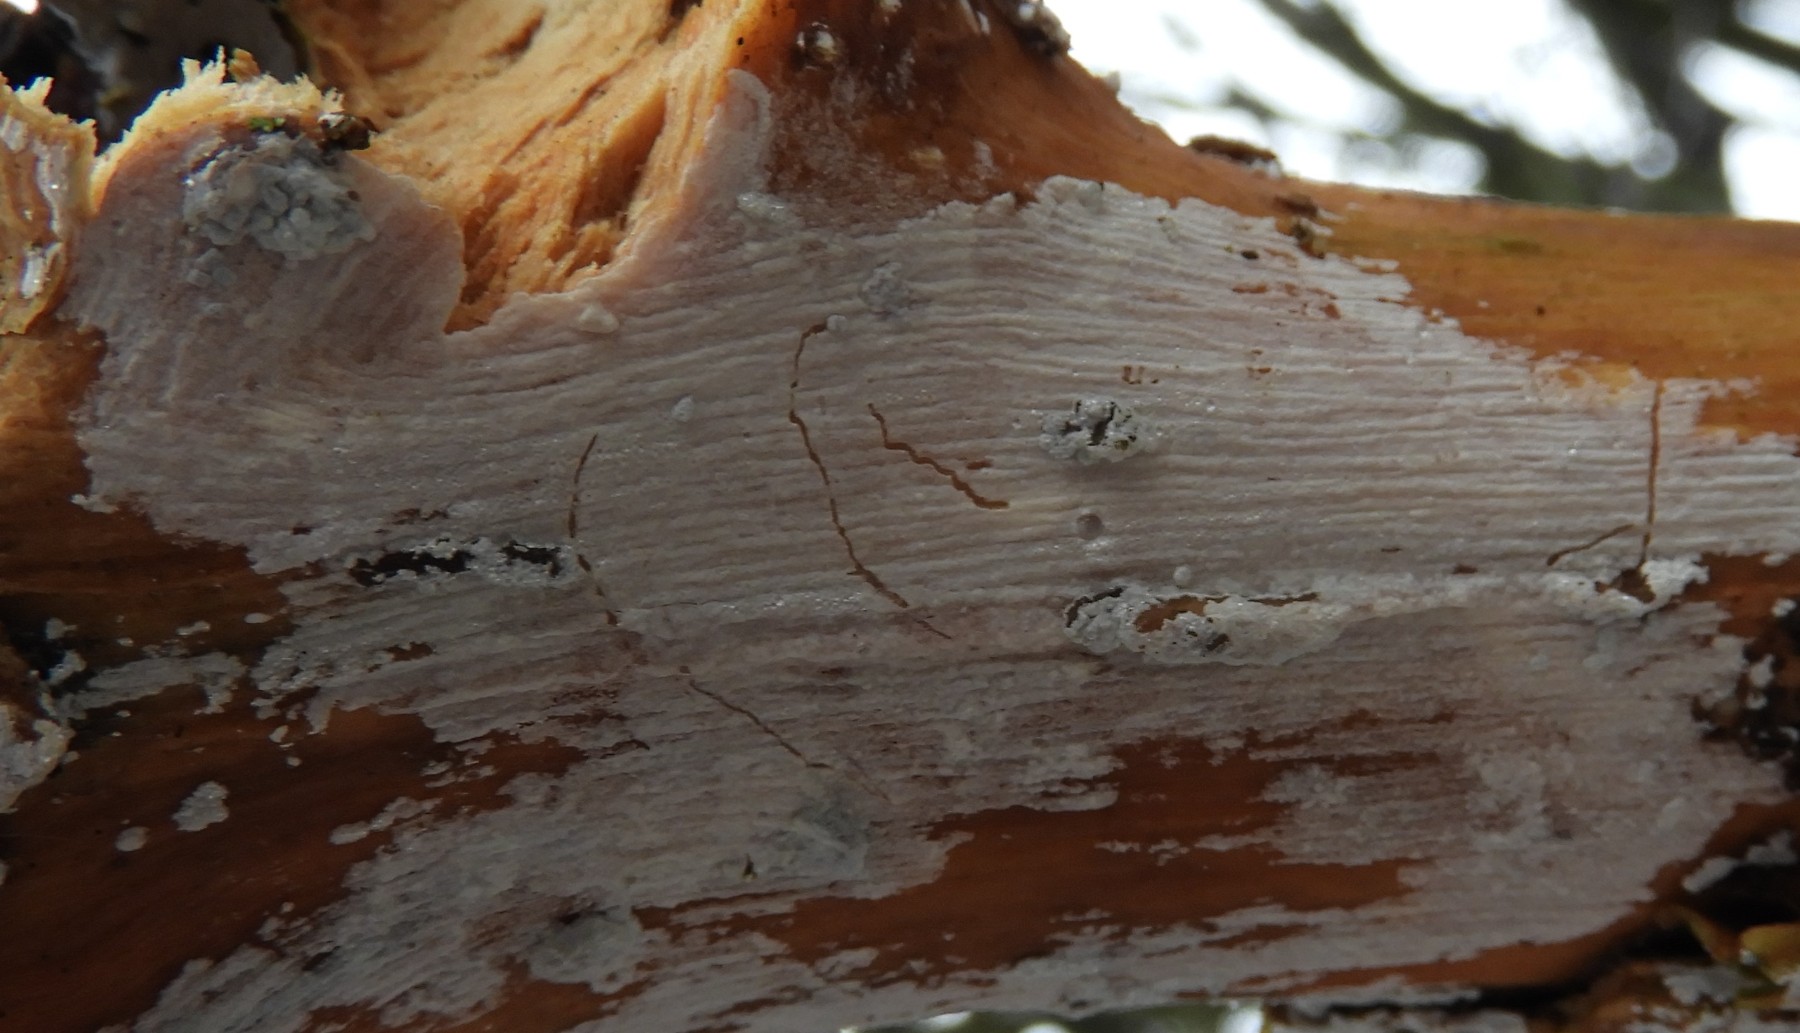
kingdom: Fungi
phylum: Basidiomycota
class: Agaricomycetes
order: Corticiales
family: Corticiaceae
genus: Lyomyces
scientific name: Lyomyces sambuci
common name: almindelig hyldehinde
